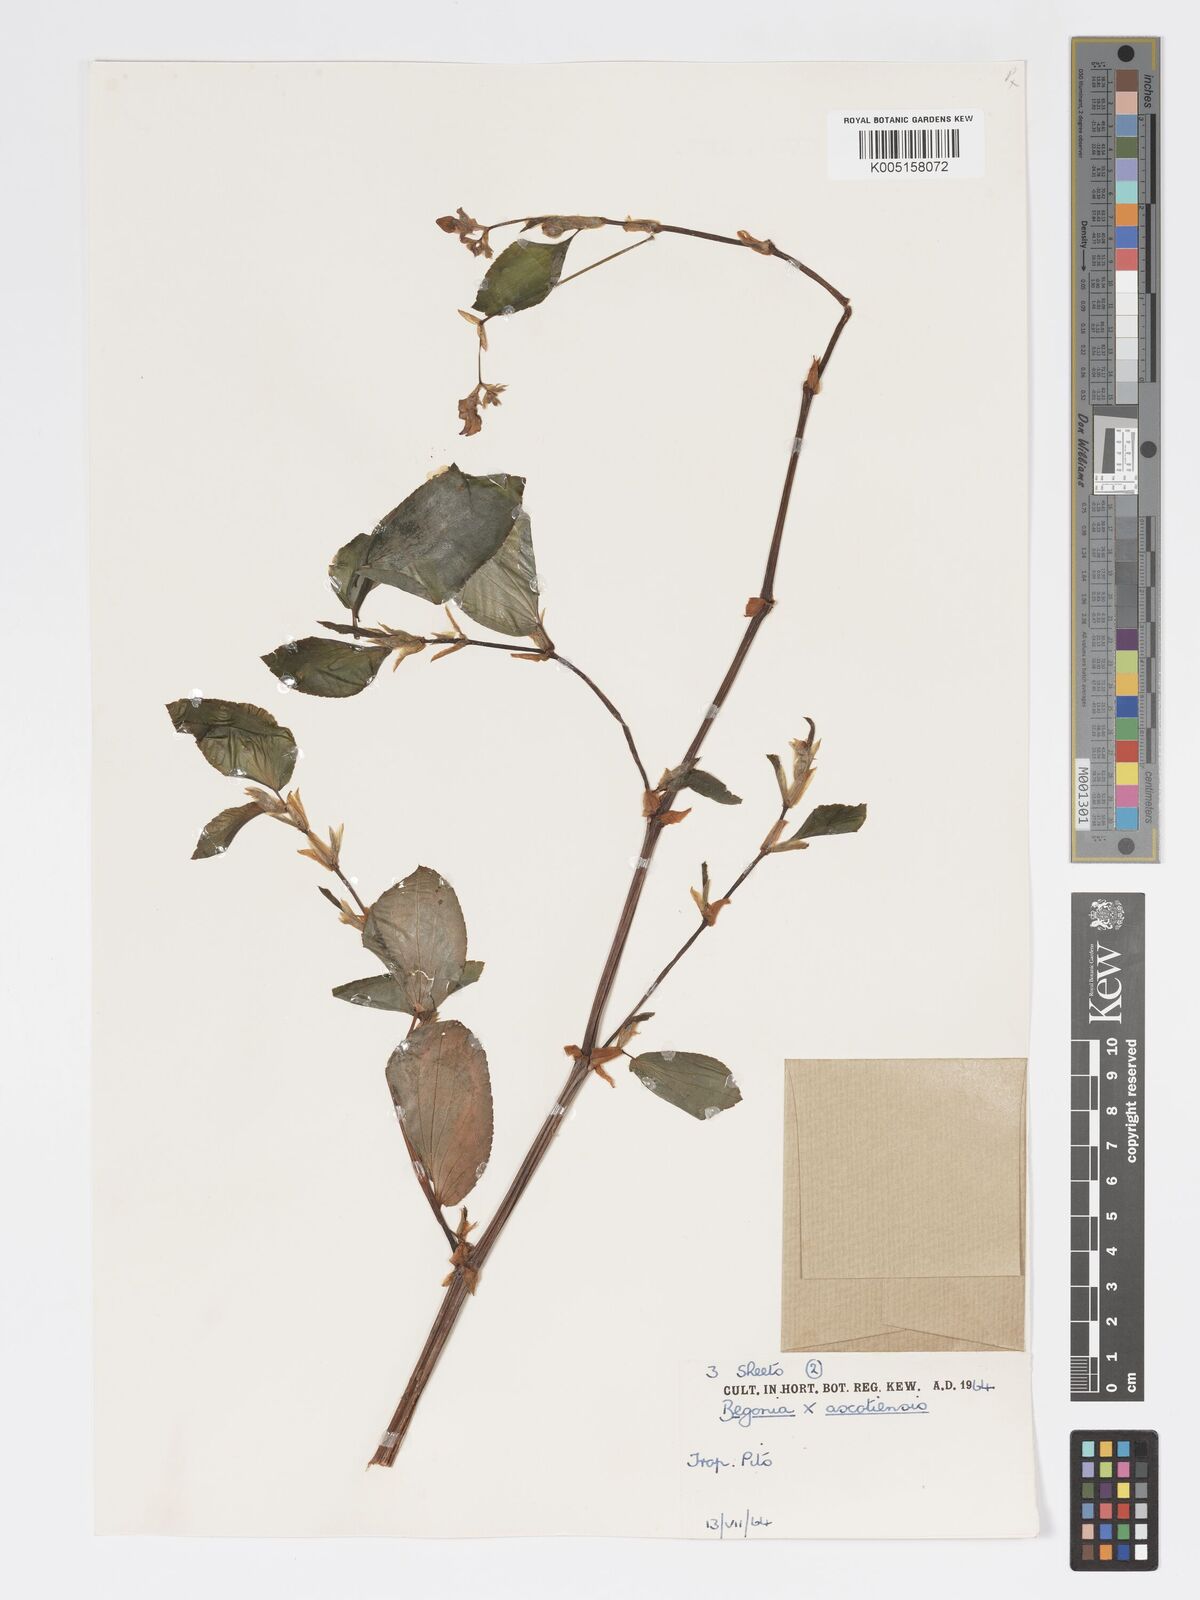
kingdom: Plantae
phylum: Tracheophyta
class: Magnoliopsida
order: Cucurbitales
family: Begoniaceae
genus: Begonia
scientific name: Begonia ascotiensis
